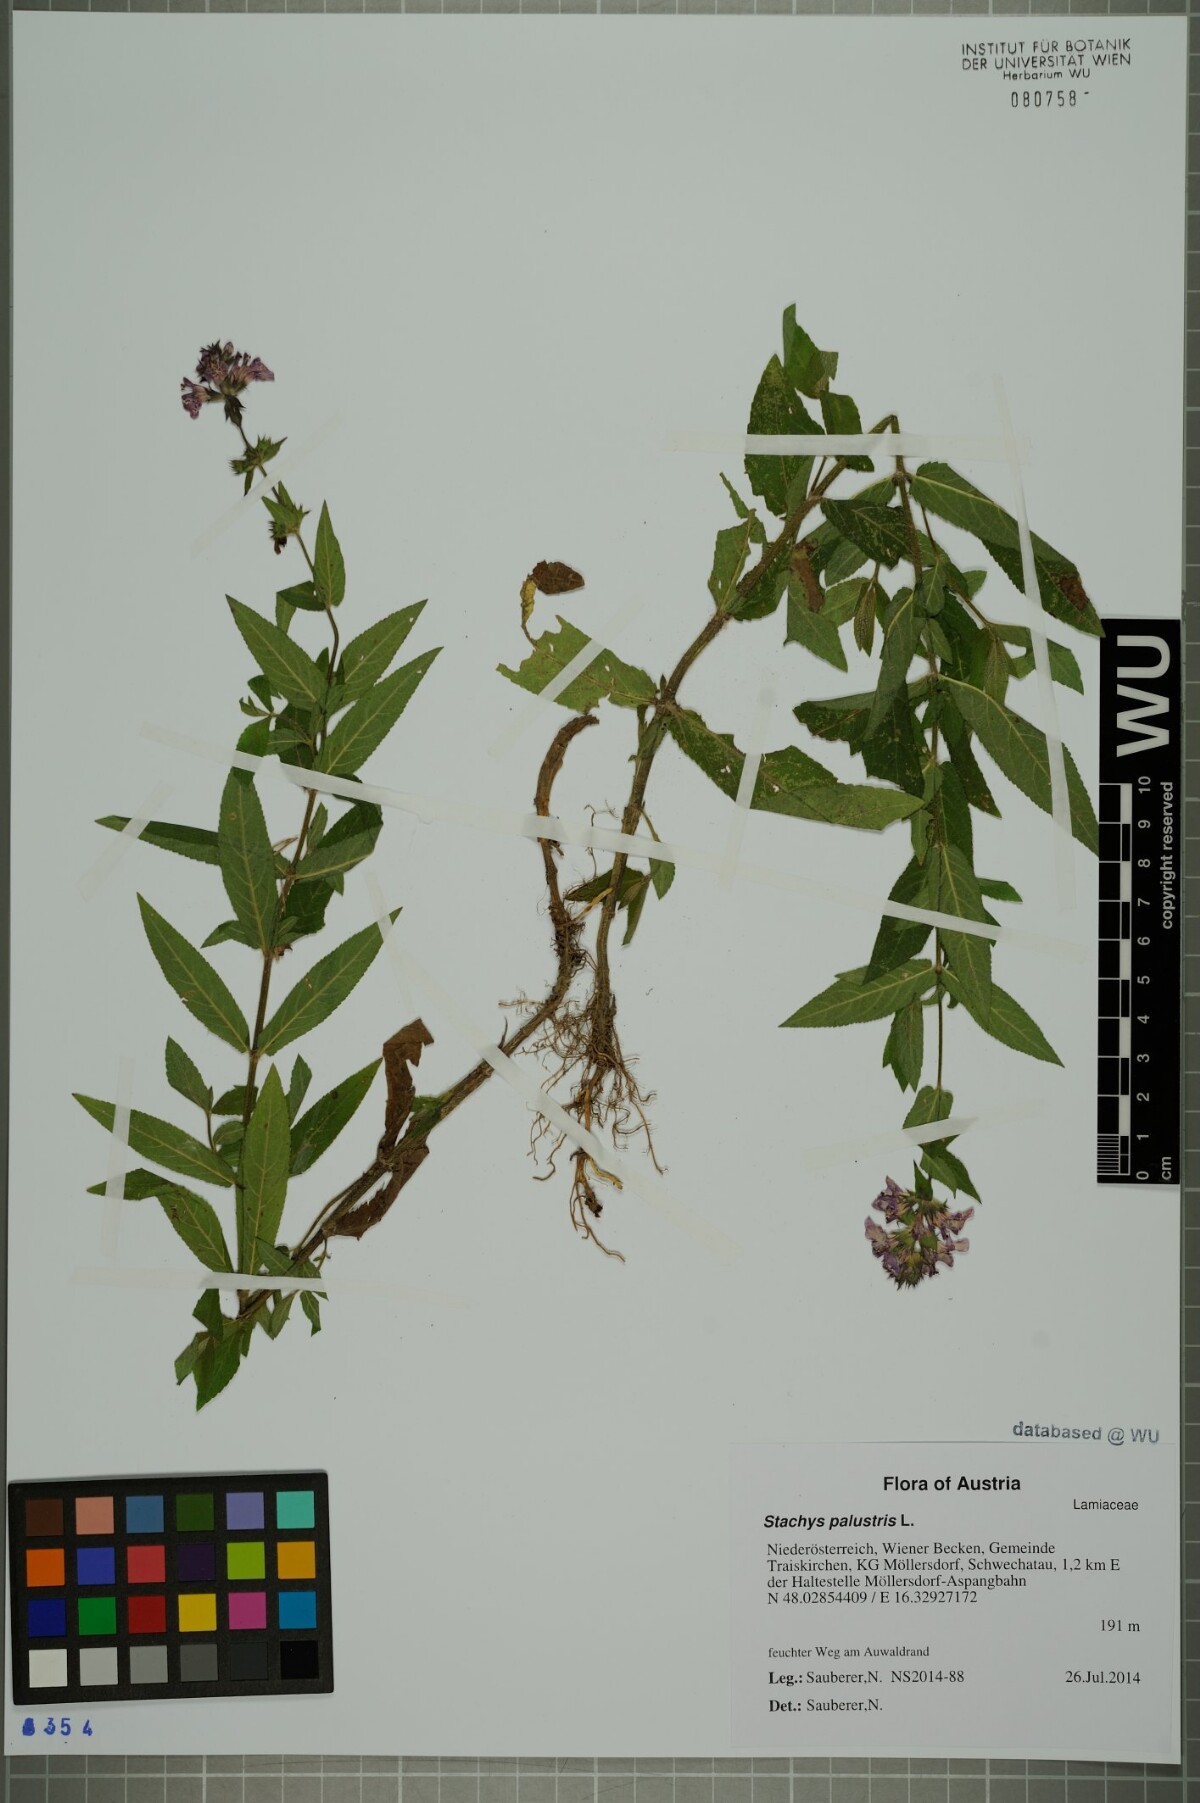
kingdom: Plantae
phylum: Tracheophyta
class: Magnoliopsida
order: Lamiales
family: Lamiaceae
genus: Stachys
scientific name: Stachys palustris
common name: Marsh woundwort
